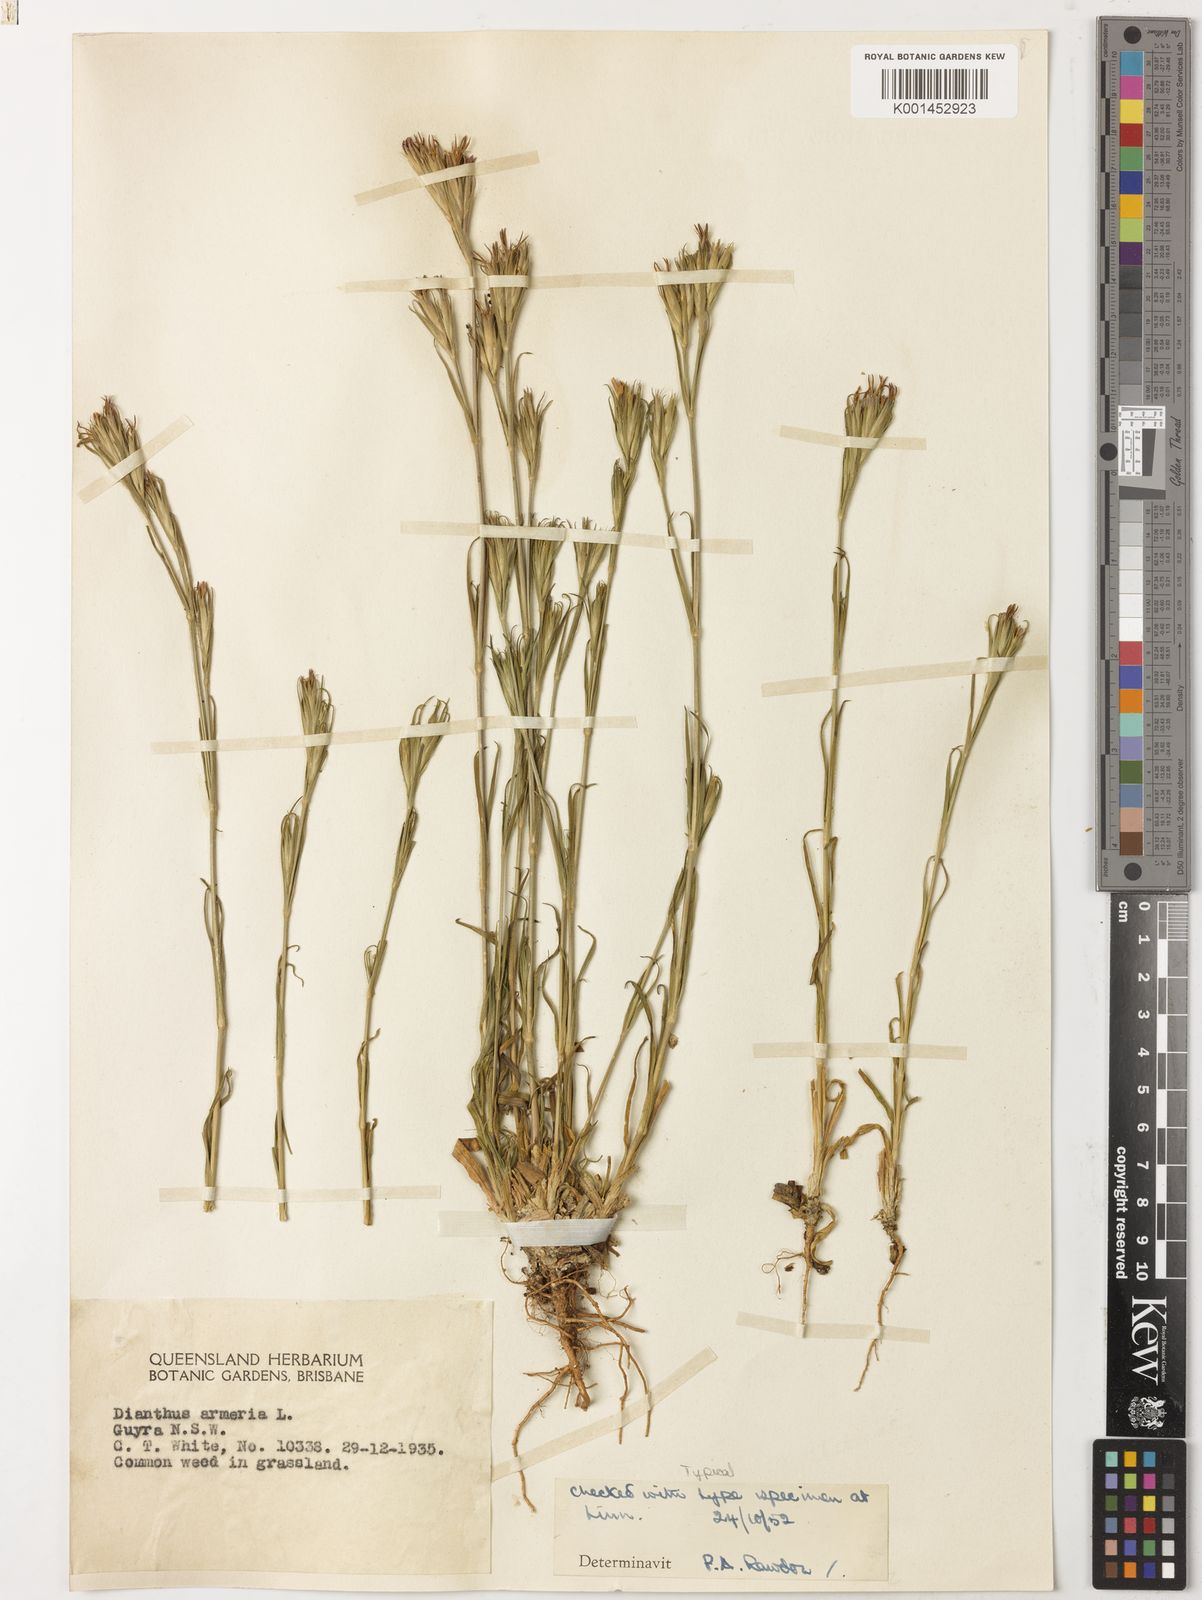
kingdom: Plantae
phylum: Tracheophyta
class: Magnoliopsida
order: Caryophyllales
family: Caryophyllaceae
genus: Dianthus
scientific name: Dianthus armeria
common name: Deptford pink
